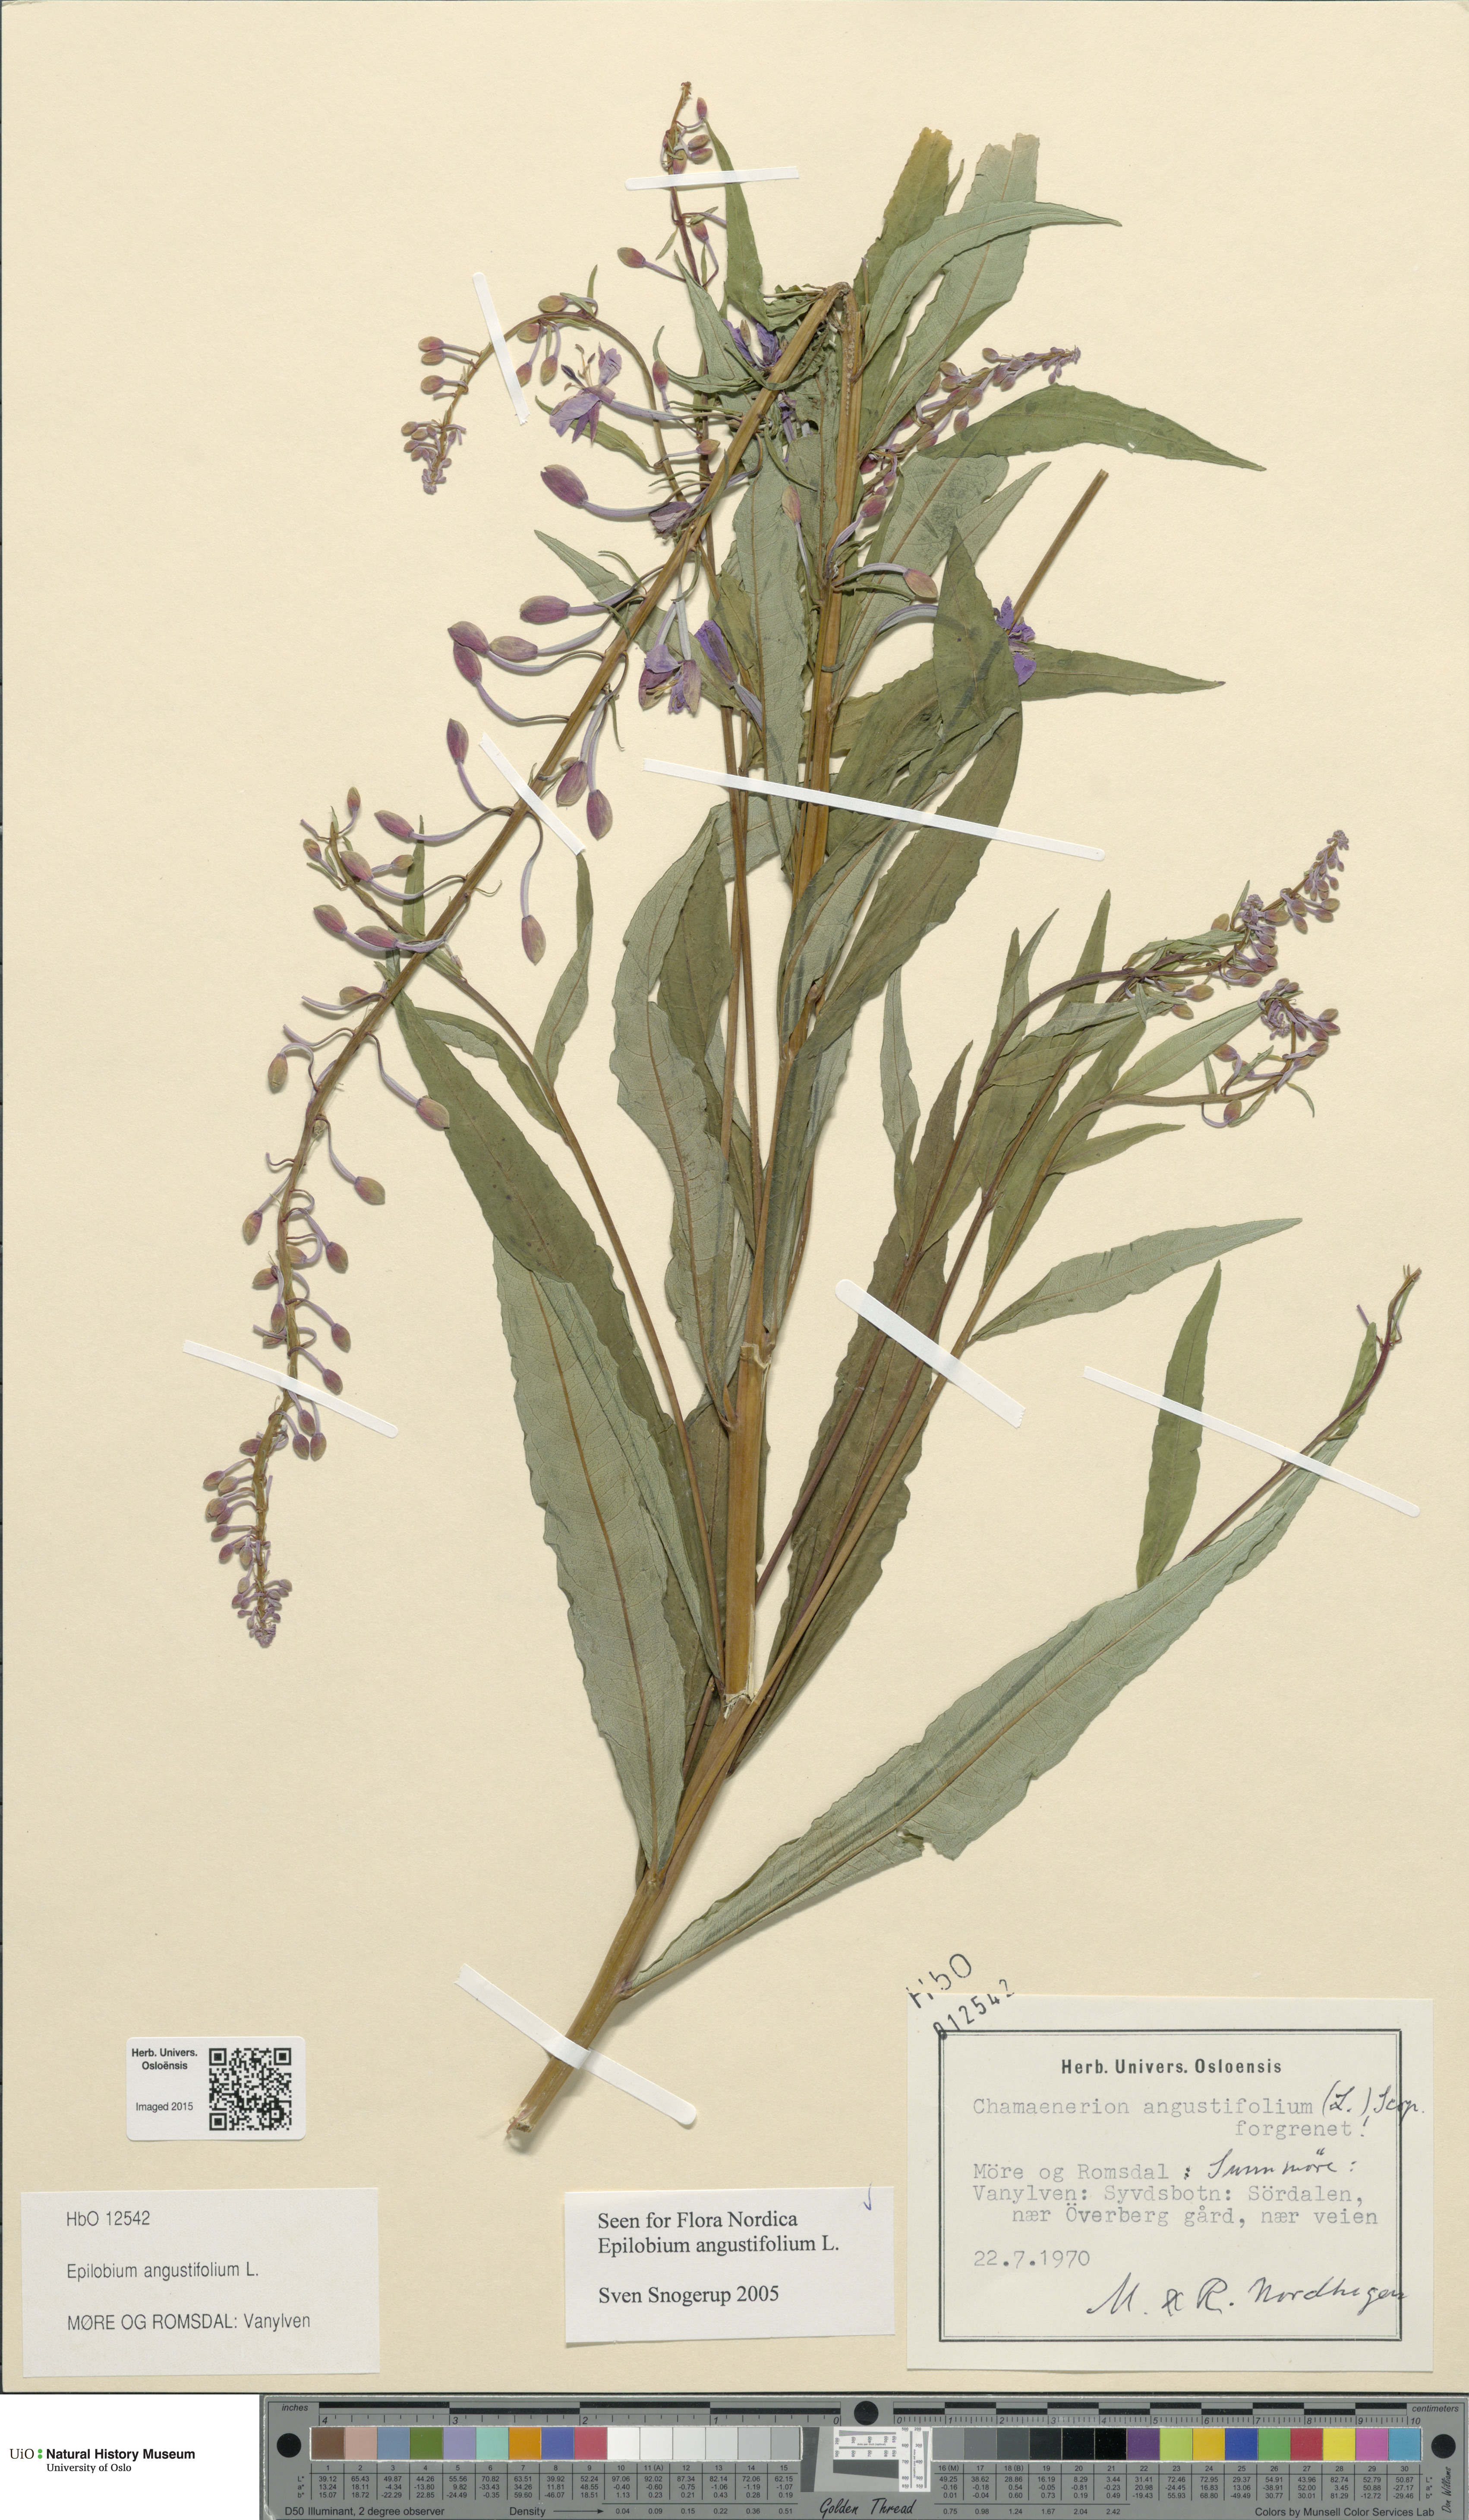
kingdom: Plantae
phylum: Tracheophyta
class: Magnoliopsida
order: Myrtales
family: Onagraceae
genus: Chamaenerion
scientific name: Chamaenerion angustifolium
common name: Fireweed
